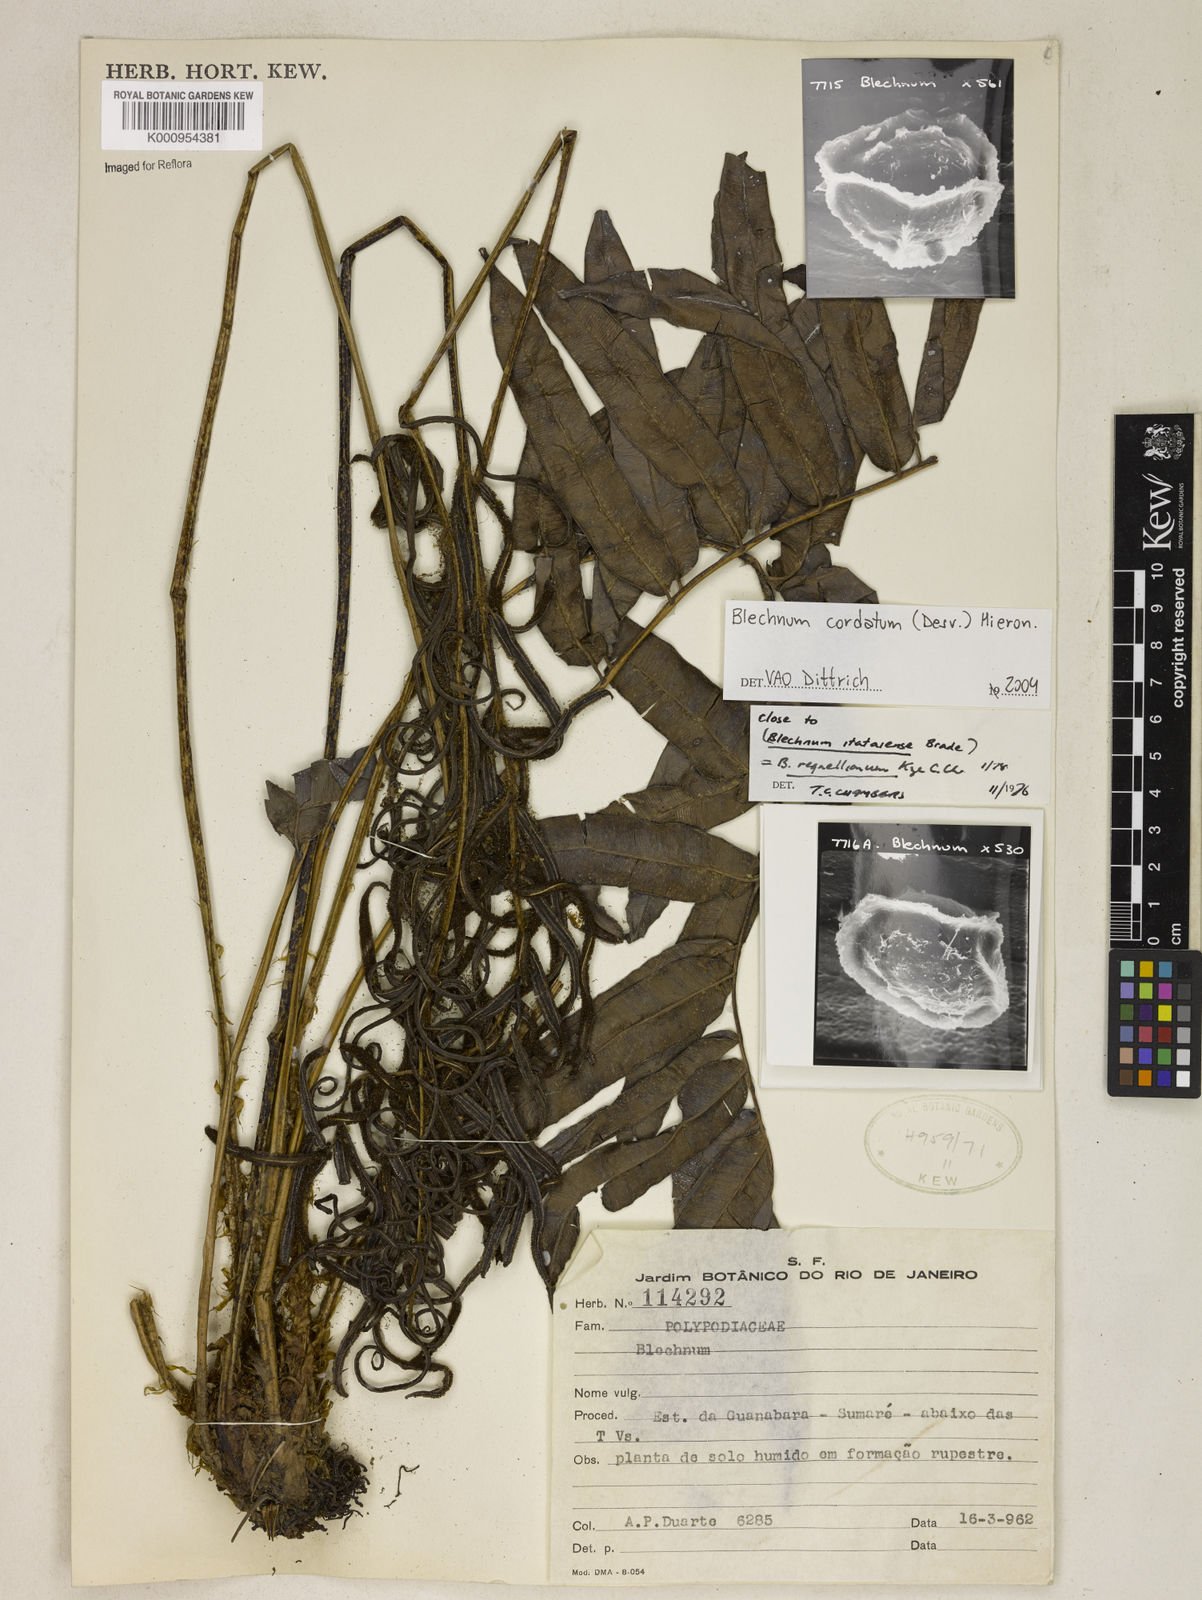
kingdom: Plantae
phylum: Tracheophyta
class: Polypodiopsida
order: Polypodiales
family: Blechnaceae
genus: Parablechnum
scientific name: Parablechnum cordatum
